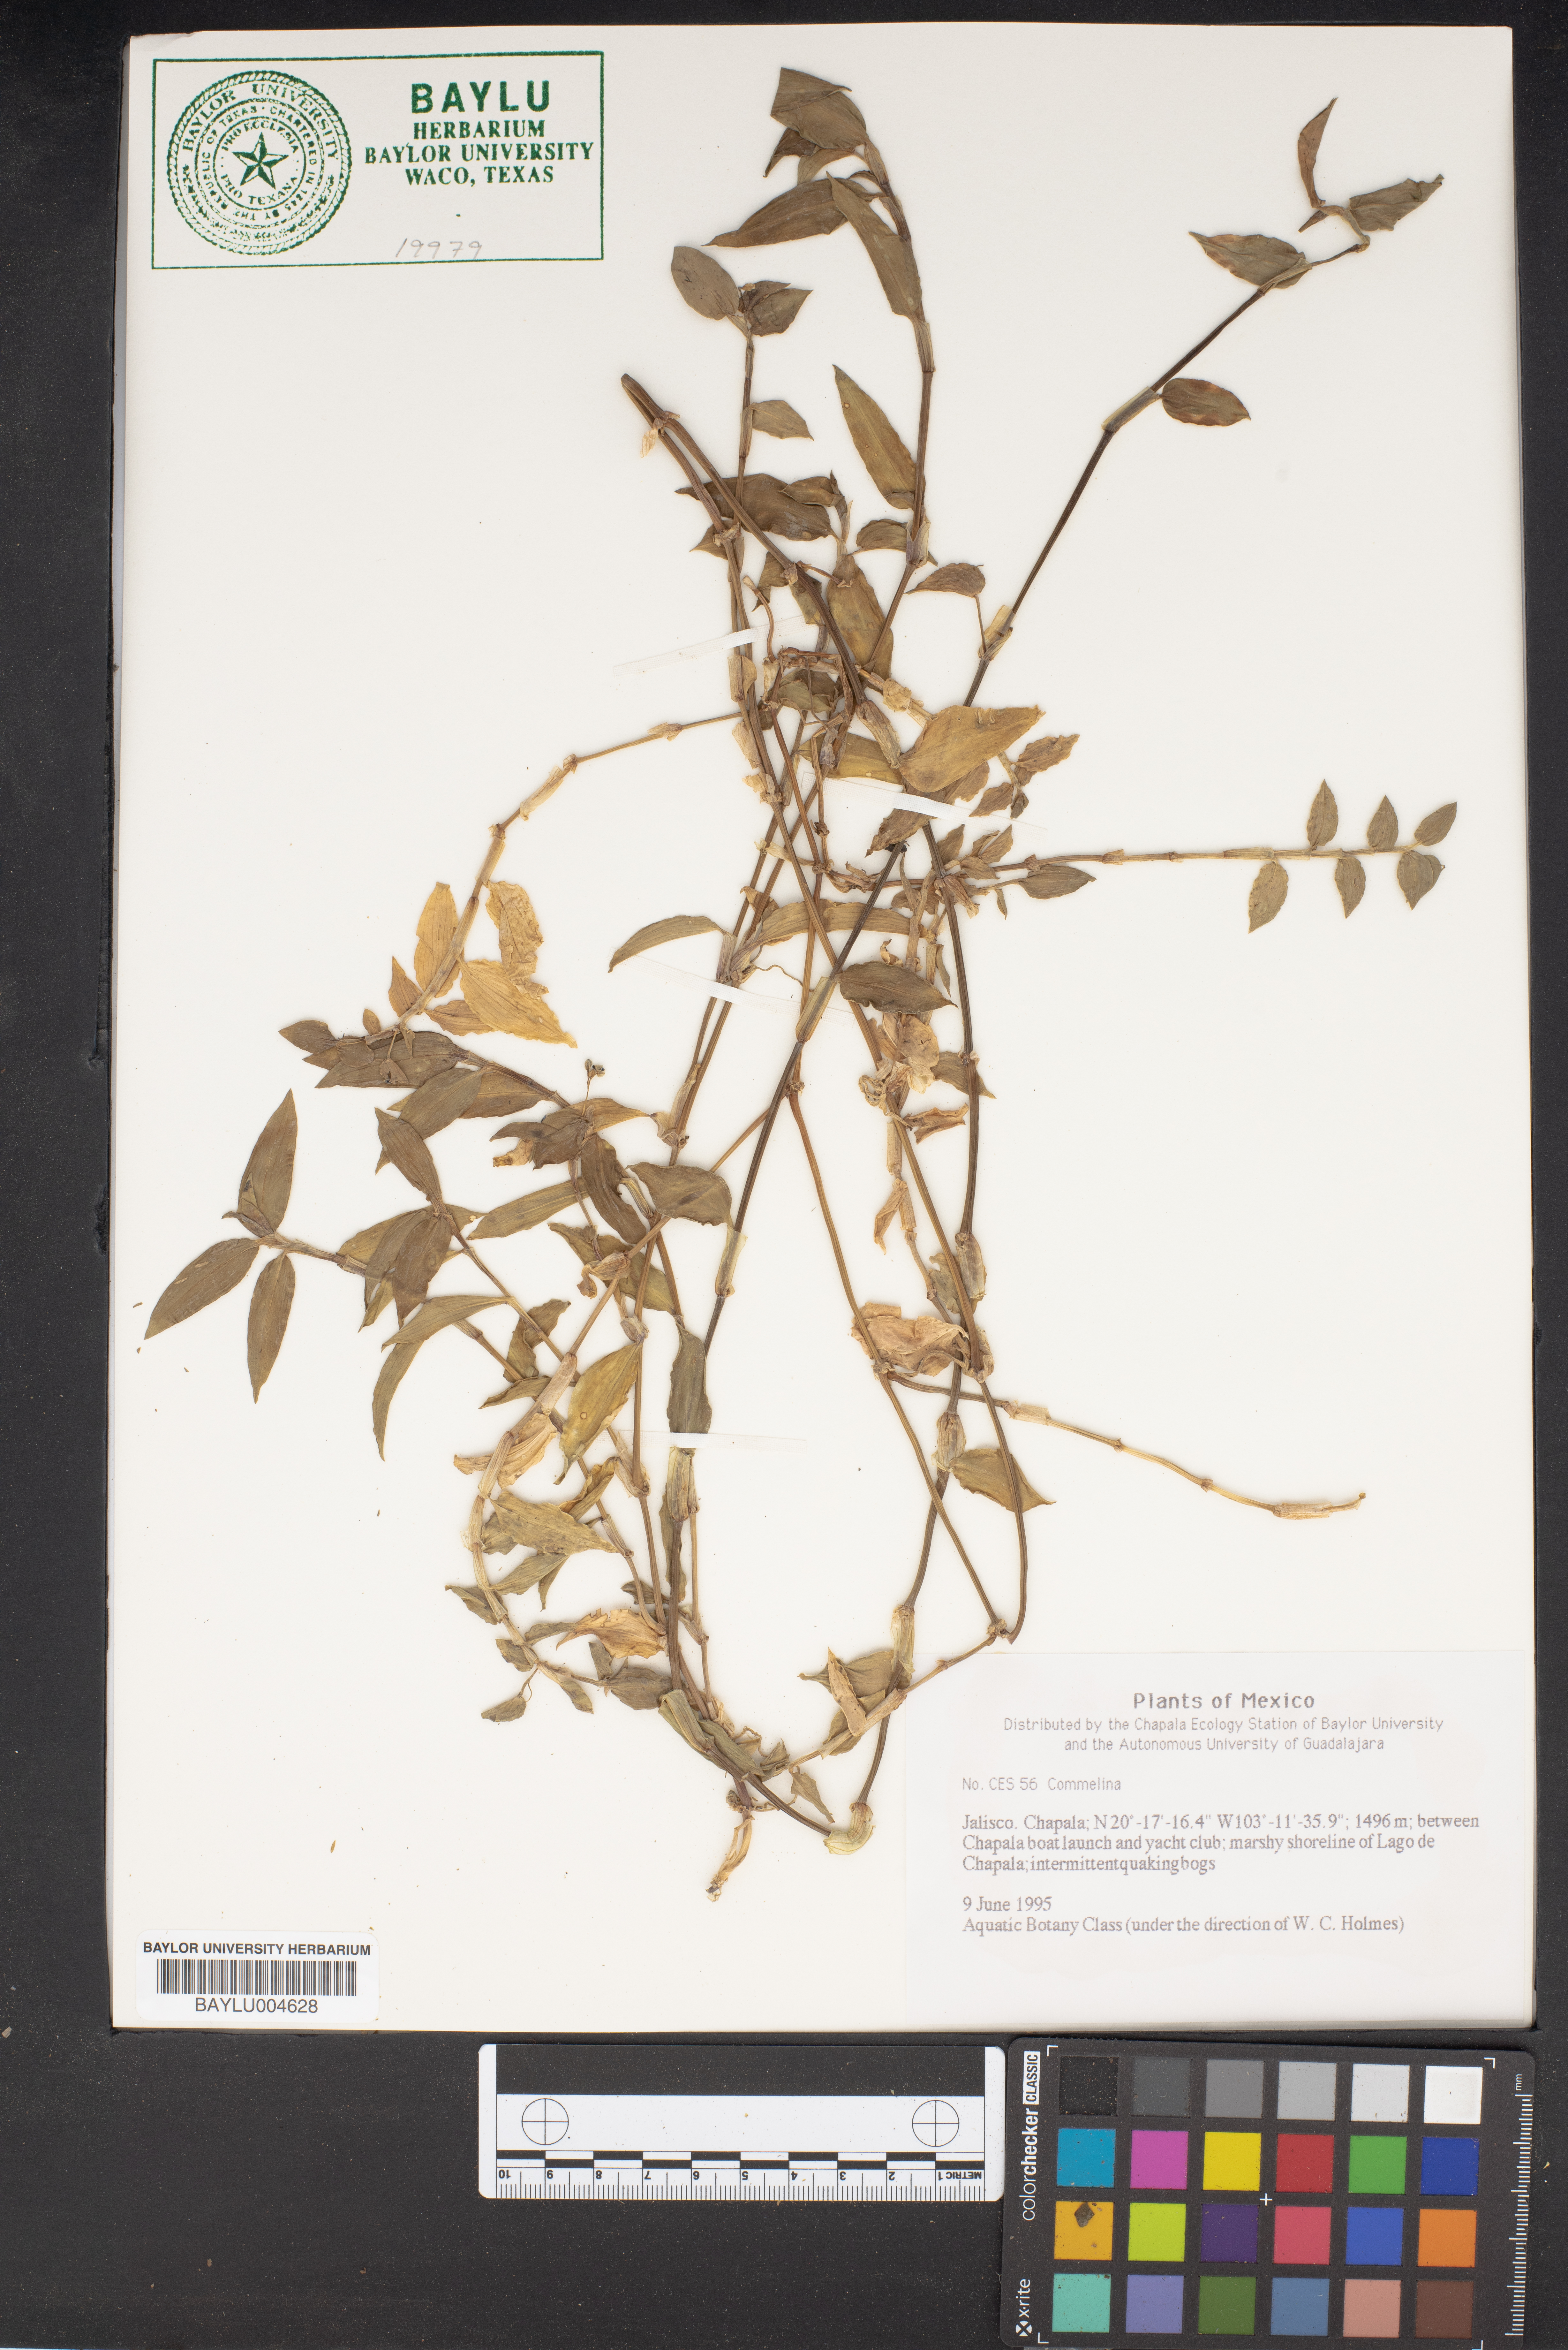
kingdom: Plantae
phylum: Tracheophyta
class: Liliopsida
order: Commelinales
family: Commelinaceae
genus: Commelina
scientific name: Commelina
